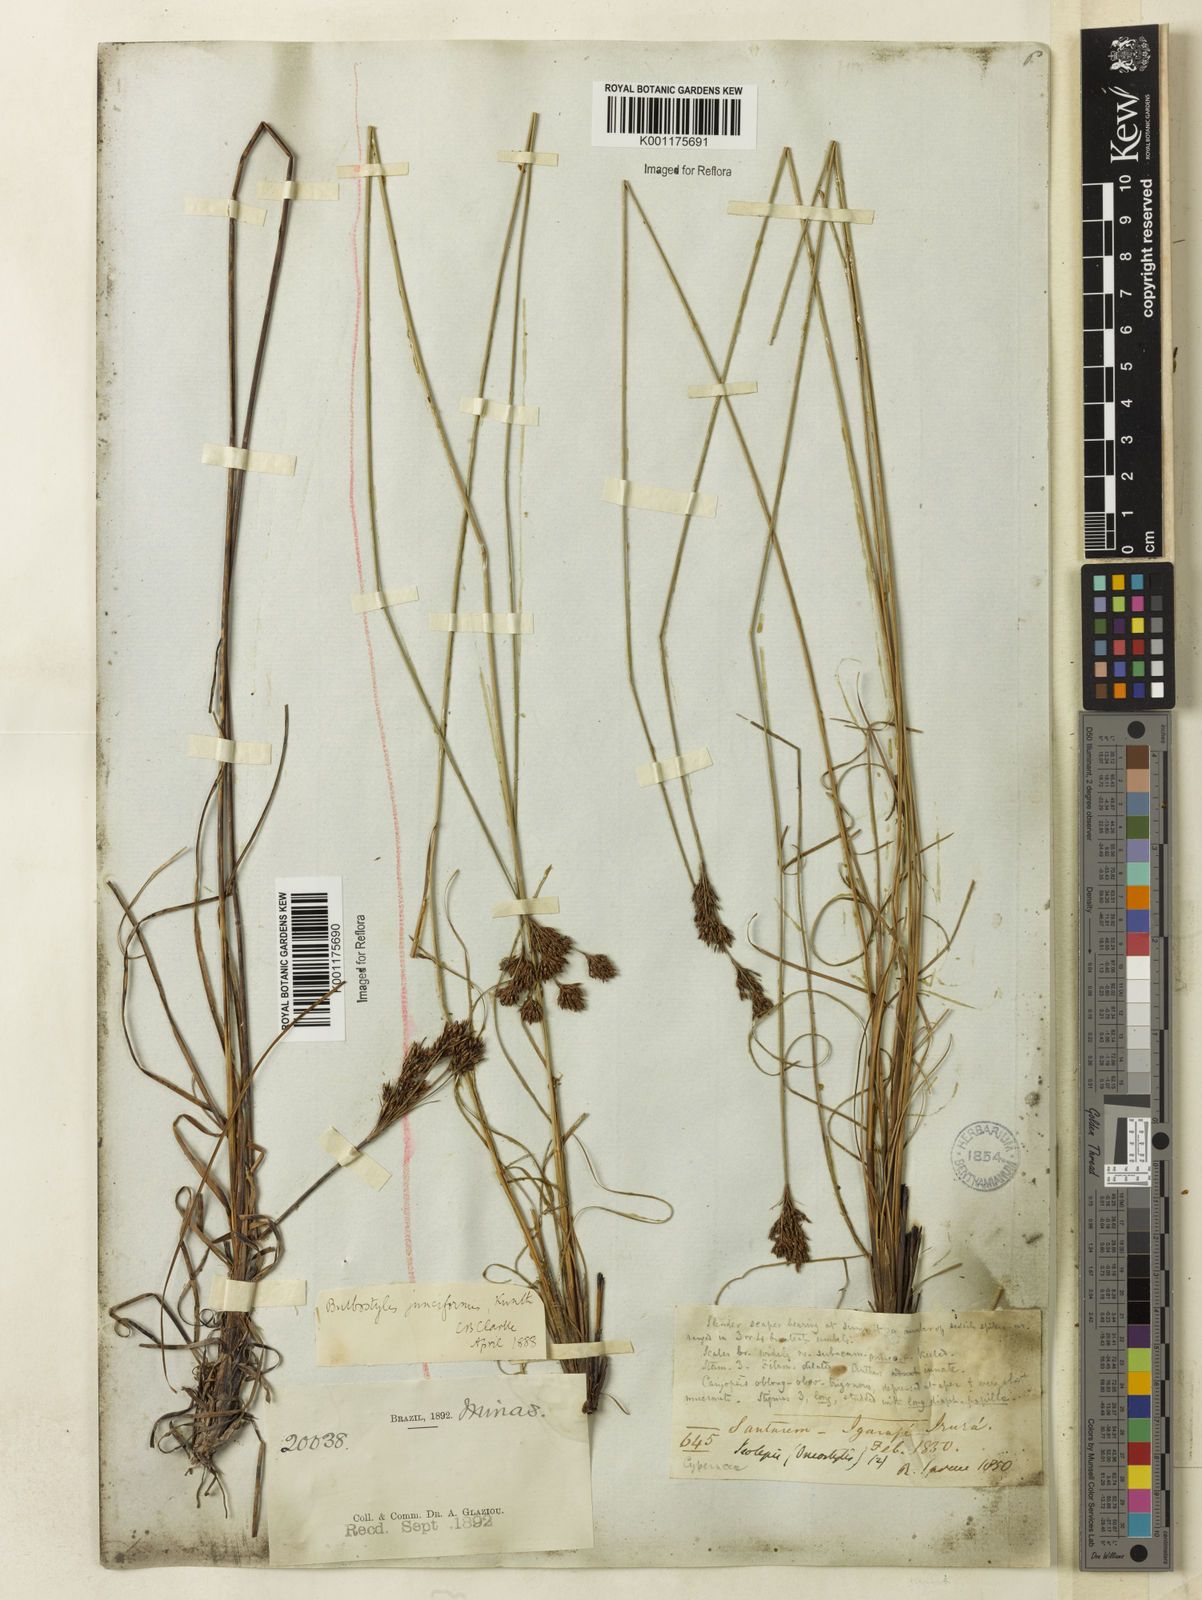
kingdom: Plantae
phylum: Tracheophyta
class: Liliopsida
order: Poales
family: Cyperaceae
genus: Bulbostylis
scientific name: Bulbostylis junciformis
